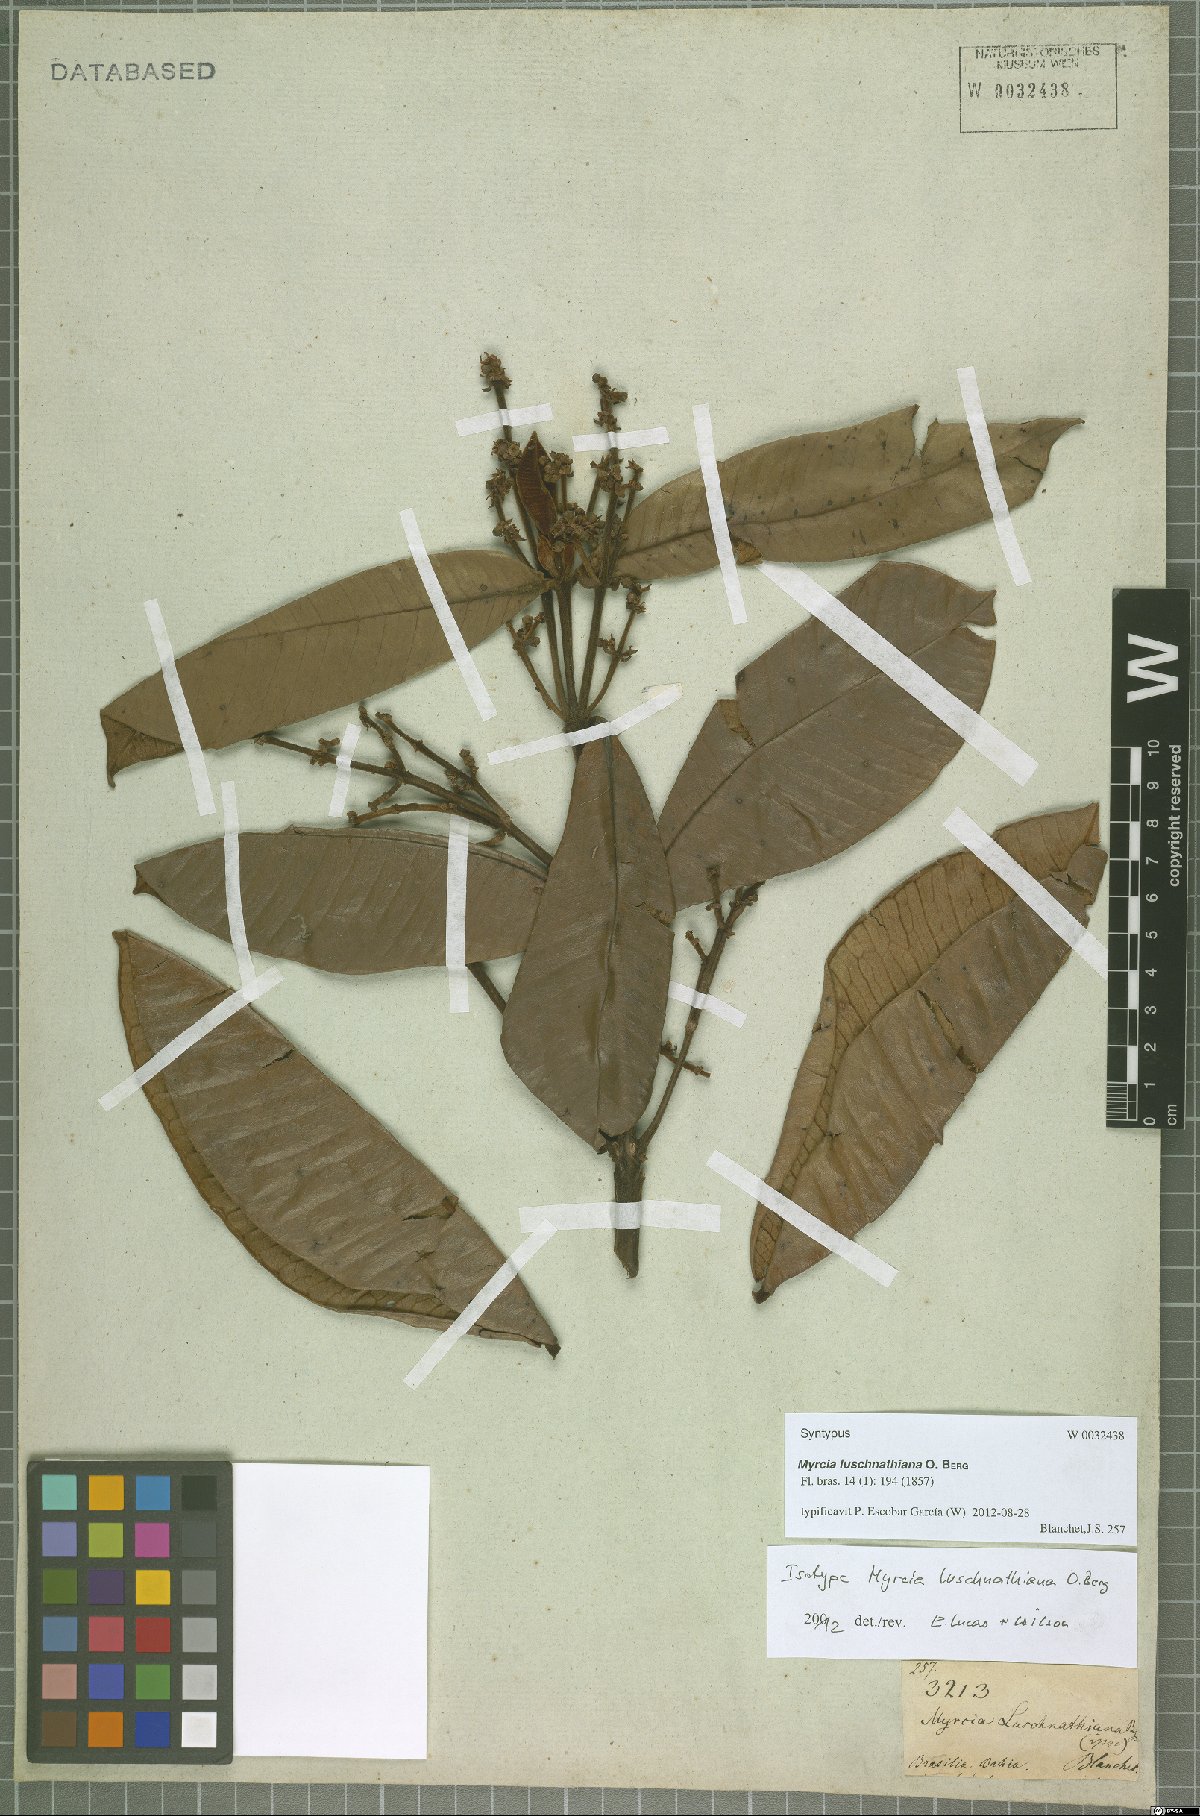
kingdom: Plantae
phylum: Tracheophyta
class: Magnoliopsida
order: Myrtales
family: Myrtaceae
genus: Myrcia
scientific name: Myrcia luschnathiana
